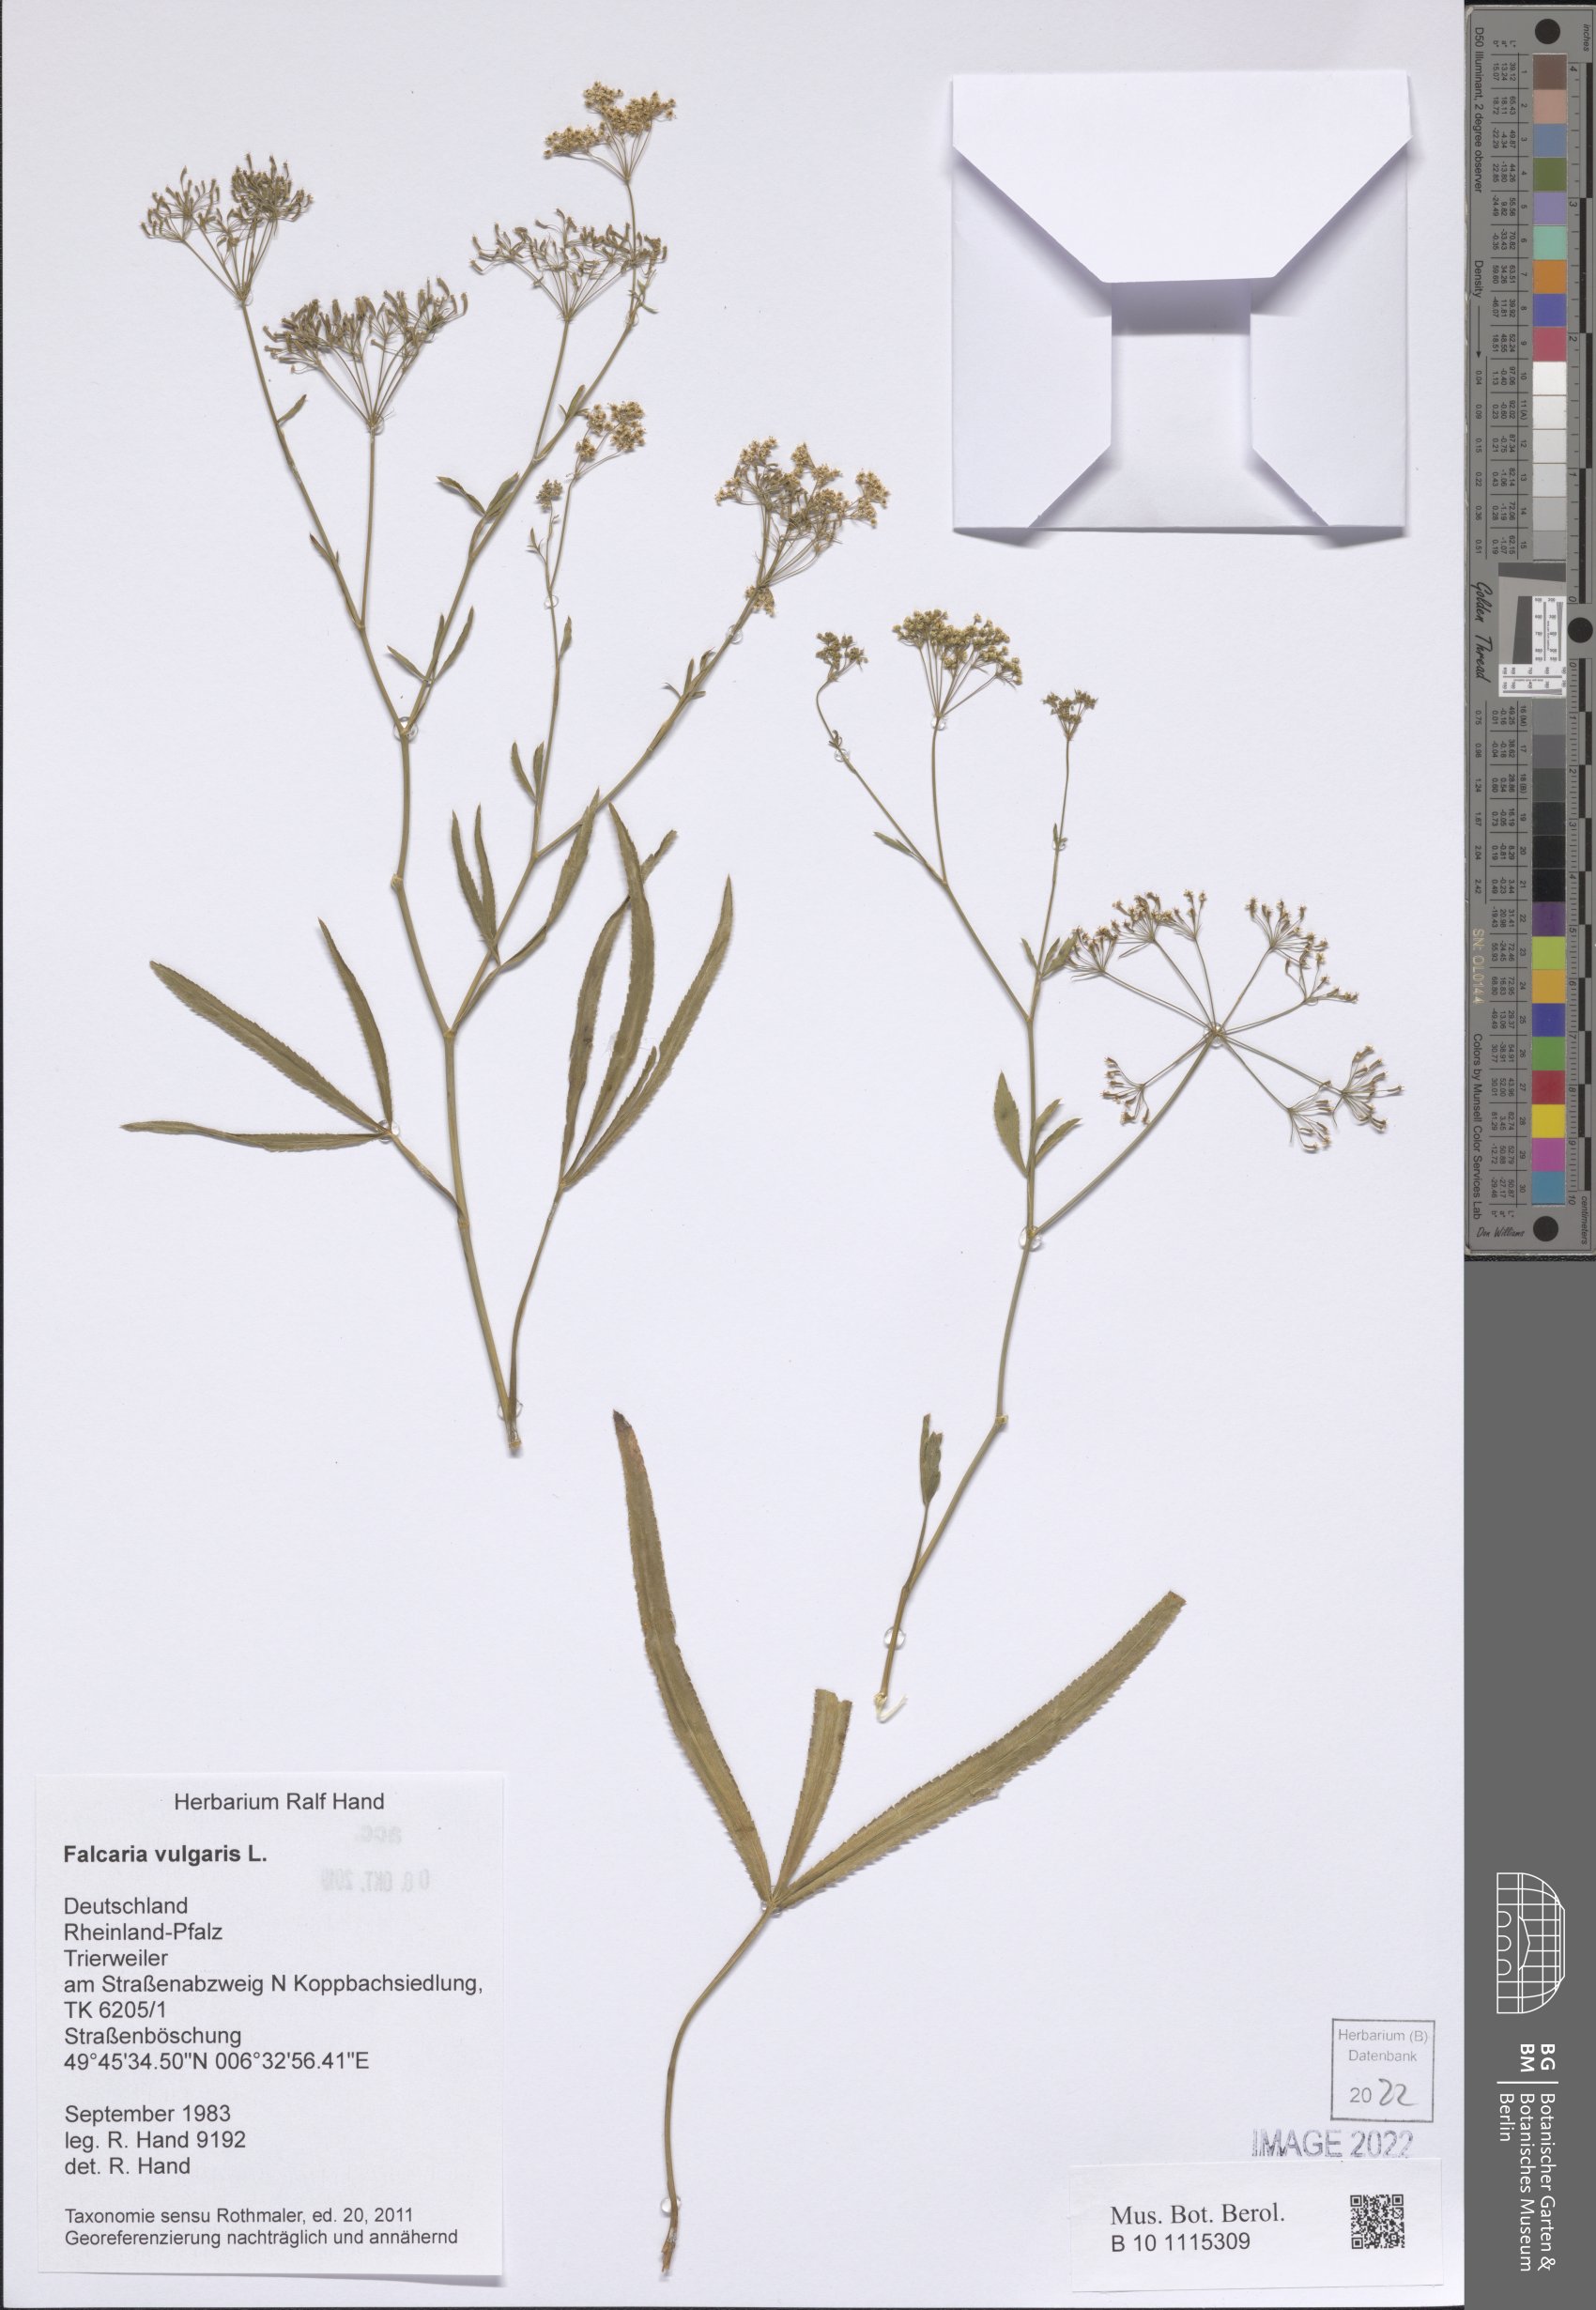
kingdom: Plantae
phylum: Tracheophyta
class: Magnoliopsida
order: Apiales
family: Apiaceae
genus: Falcaria
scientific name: Falcaria vulgaris
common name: Longleaf
